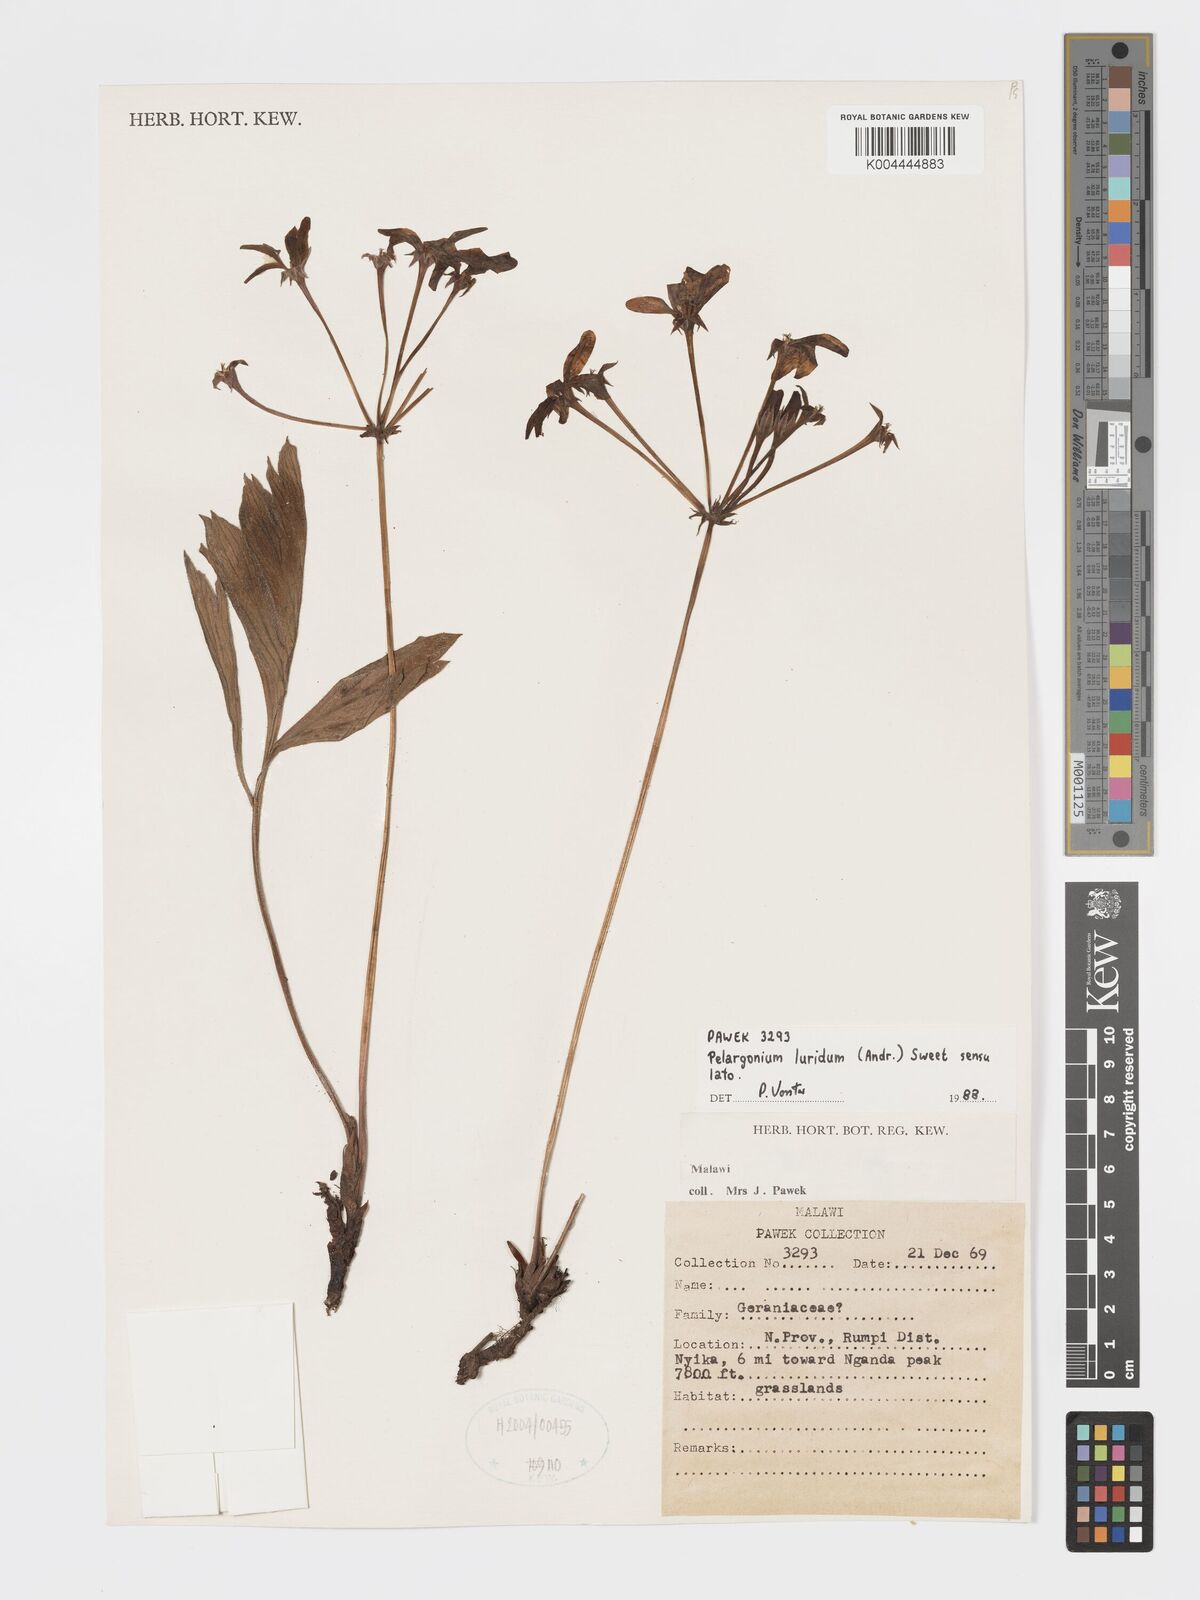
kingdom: Plantae
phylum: Tracheophyta
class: Magnoliopsida
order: Geraniales
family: Geraniaceae
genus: Pelargonium
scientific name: Pelargonium luridum
